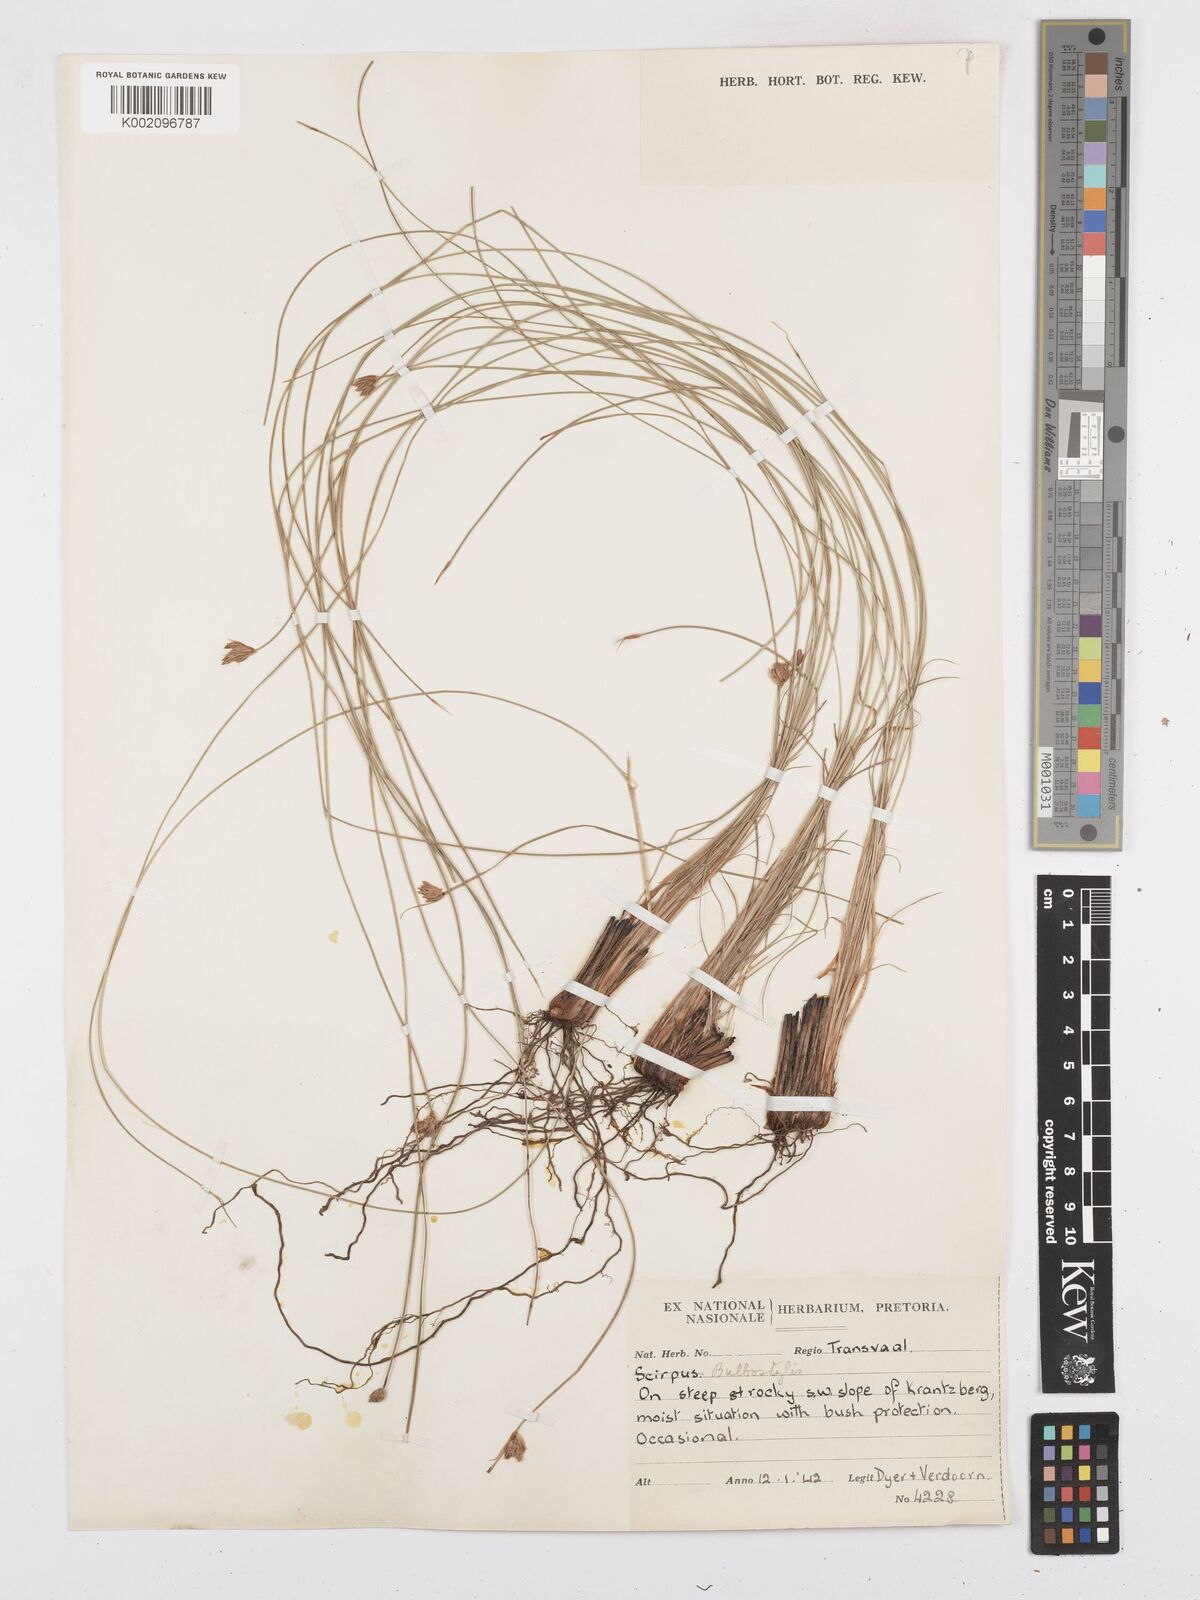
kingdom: Plantae
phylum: Tracheophyta
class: Liliopsida
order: Poales
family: Cyperaceae
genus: Bulbostylis
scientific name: Bulbostylis
